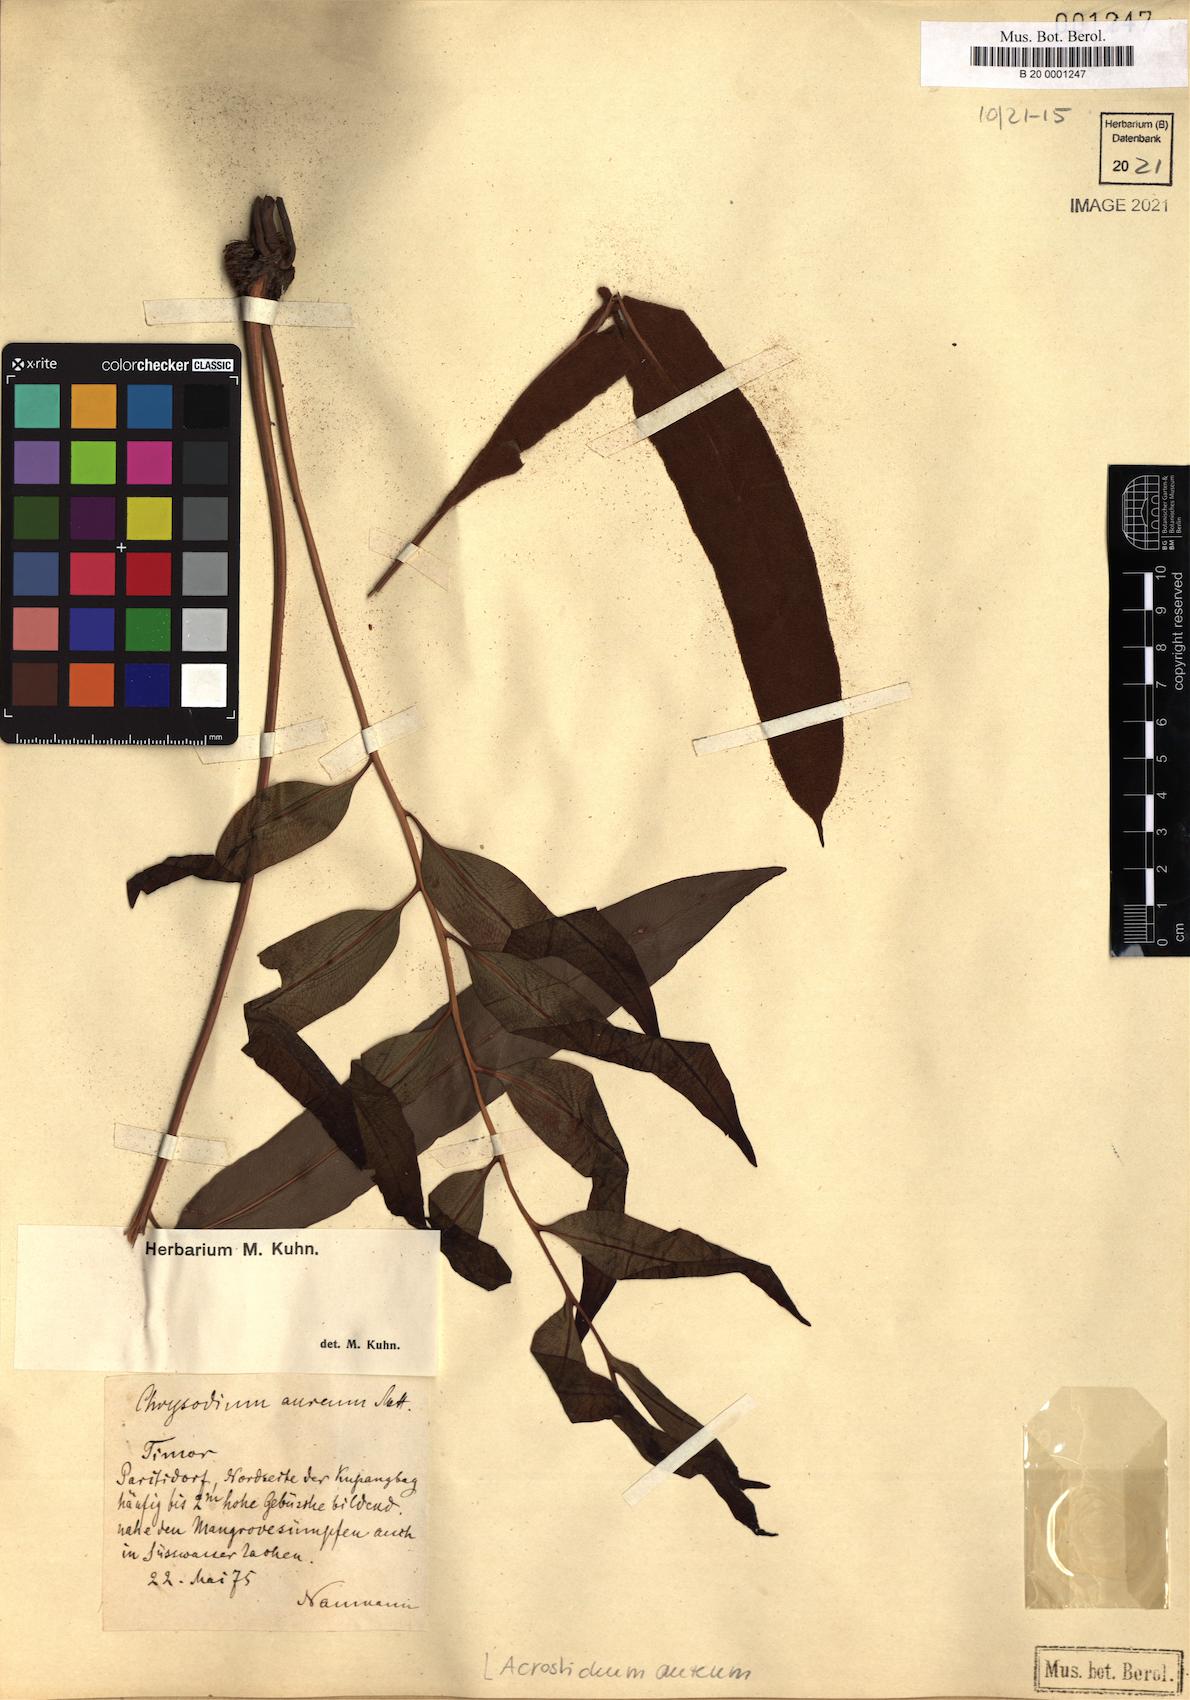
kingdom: Plantae
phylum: Tracheophyta
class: Polypodiopsida
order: Polypodiales
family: Pteridaceae
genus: Acrostichum
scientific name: Acrostichum aureum
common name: Leather fern
